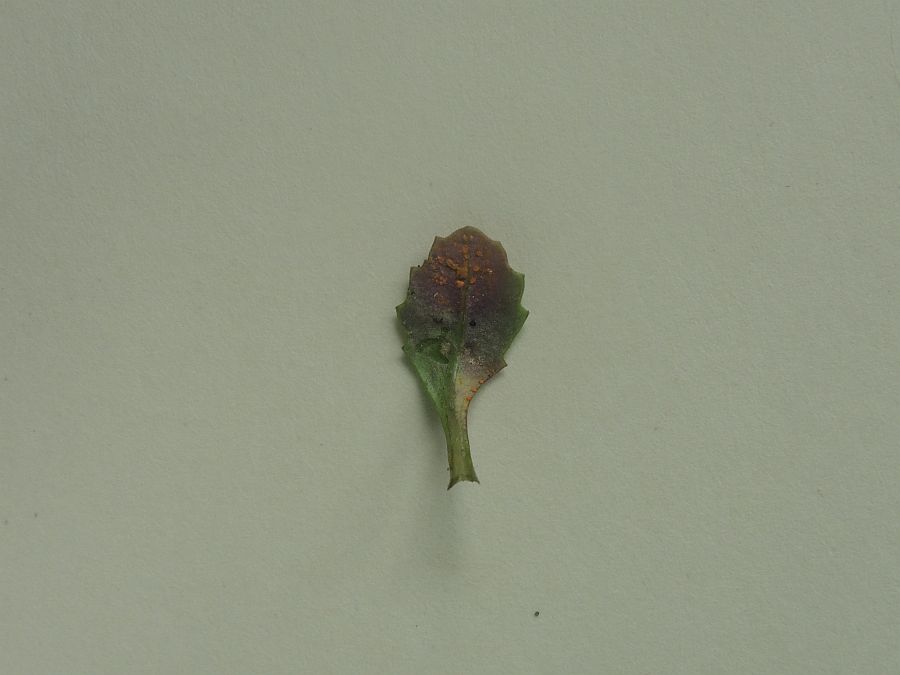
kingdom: Fungi
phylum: Basidiomycota
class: Pucciniomycetes
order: Pucciniales
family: Pucciniaceae
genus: Puccinia
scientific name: Puccinia lagenophorae
